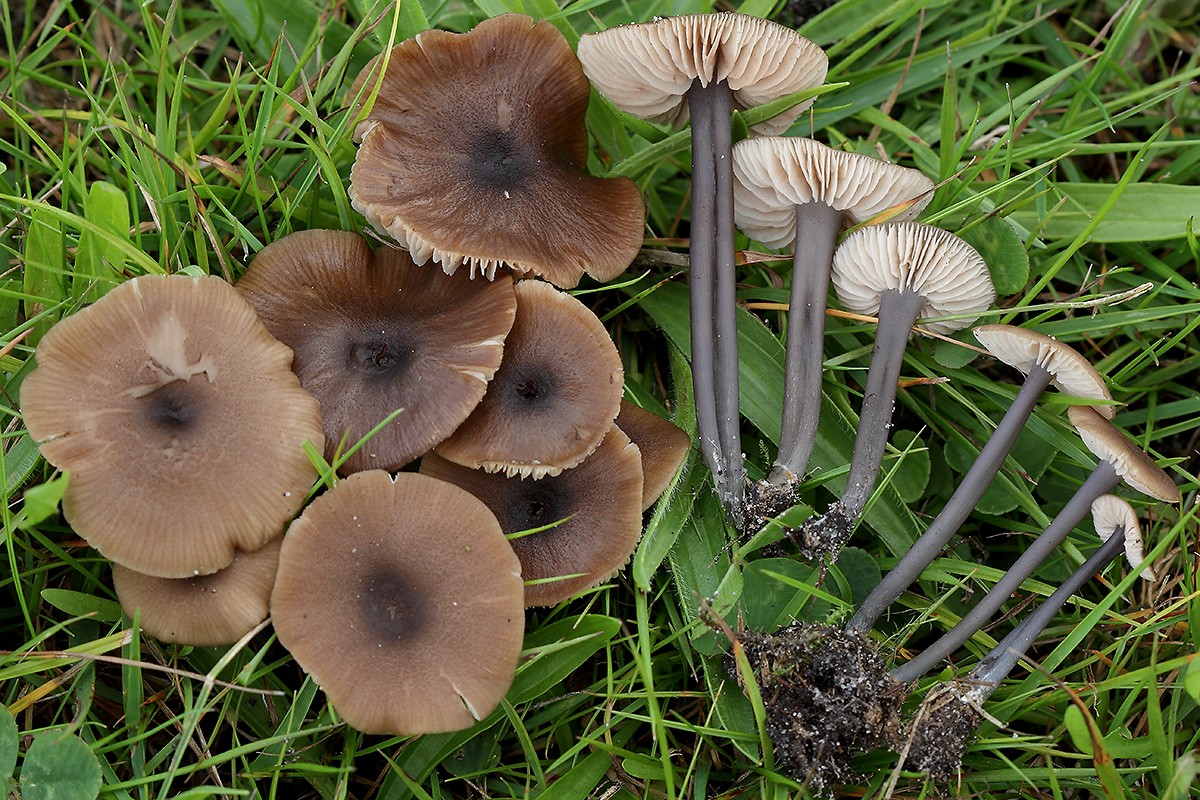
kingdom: Fungi
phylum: Basidiomycota
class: Agaricomycetes
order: Agaricales
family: Entolomataceae
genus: Entoloma
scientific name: Entoloma asprellum
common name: ru rødblad
